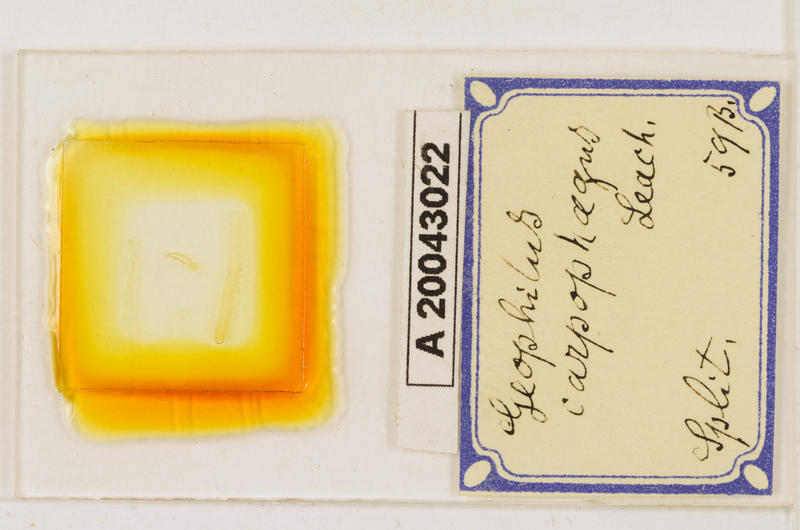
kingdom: Animalia
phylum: Arthropoda
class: Chilopoda
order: Geophilomorpha
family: Geophilidae
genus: Geophilus
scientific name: Geophilus carpophagus
